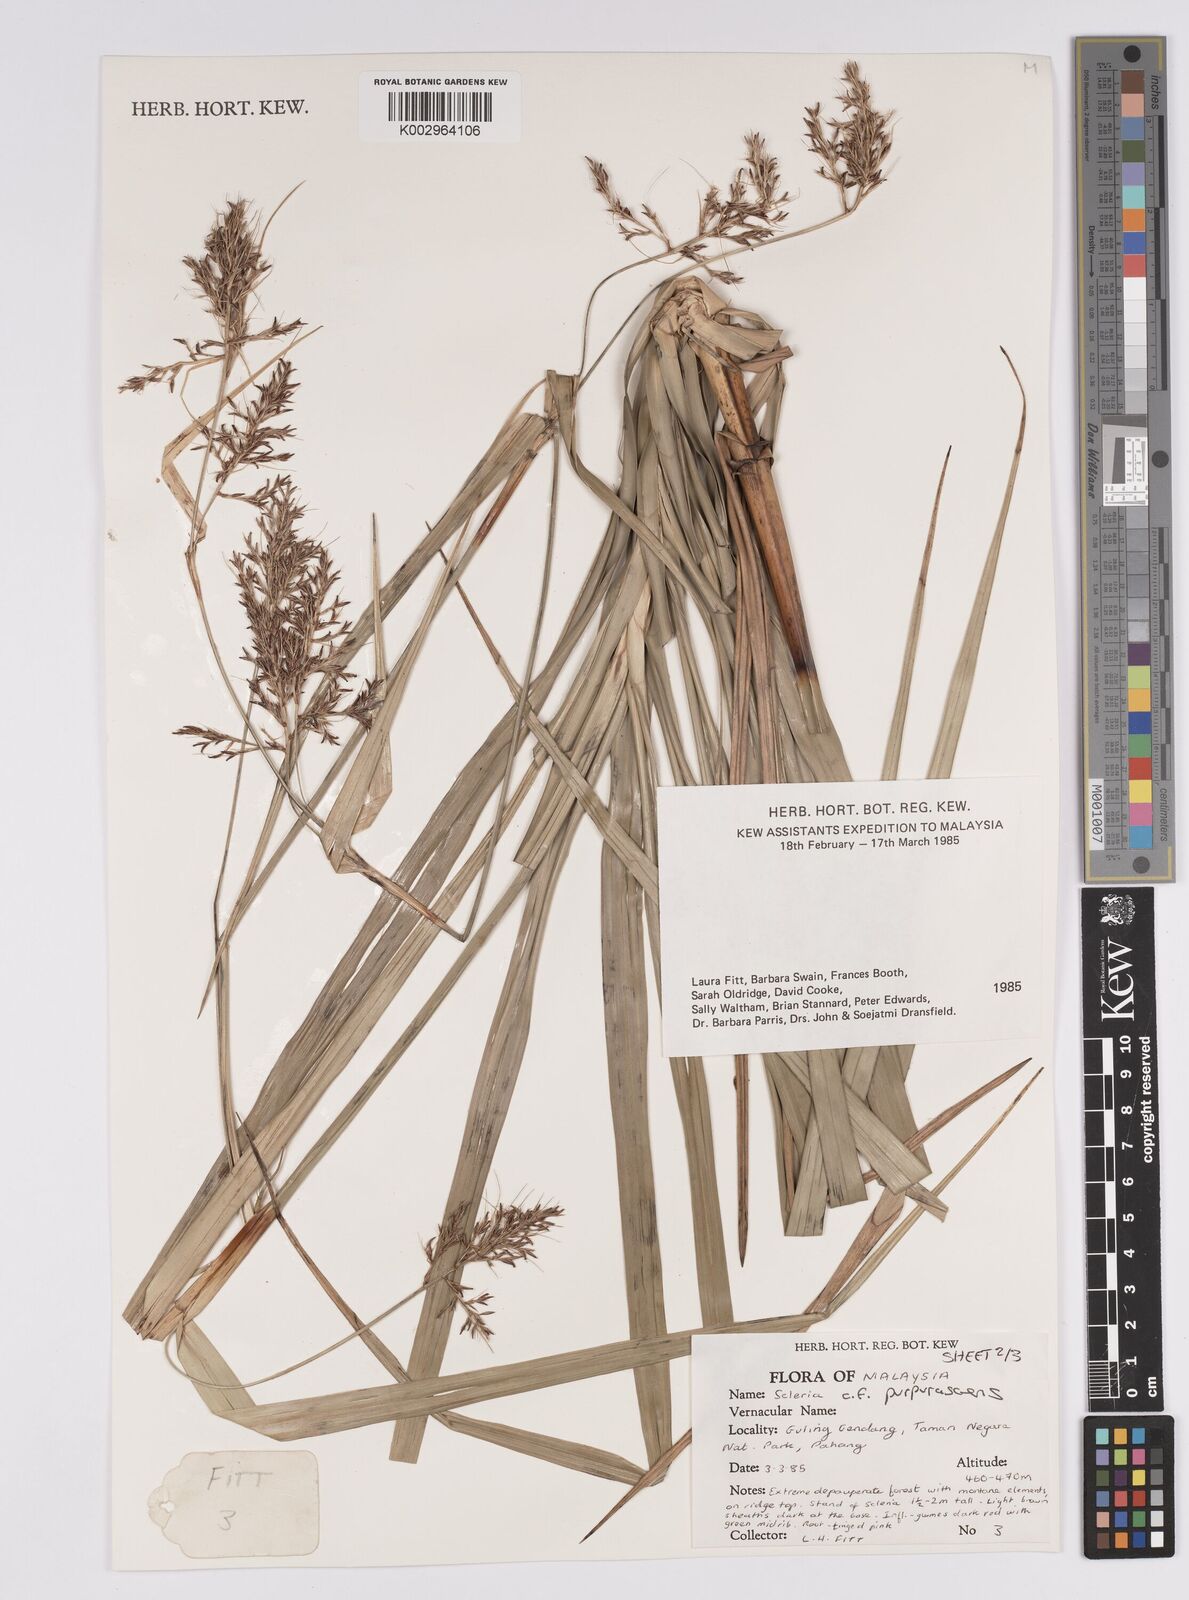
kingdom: Plantae
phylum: Tracheophyta
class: Liliopsida
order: Poales
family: Cyperaceae
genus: Scleria
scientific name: Scleria purpurascens
